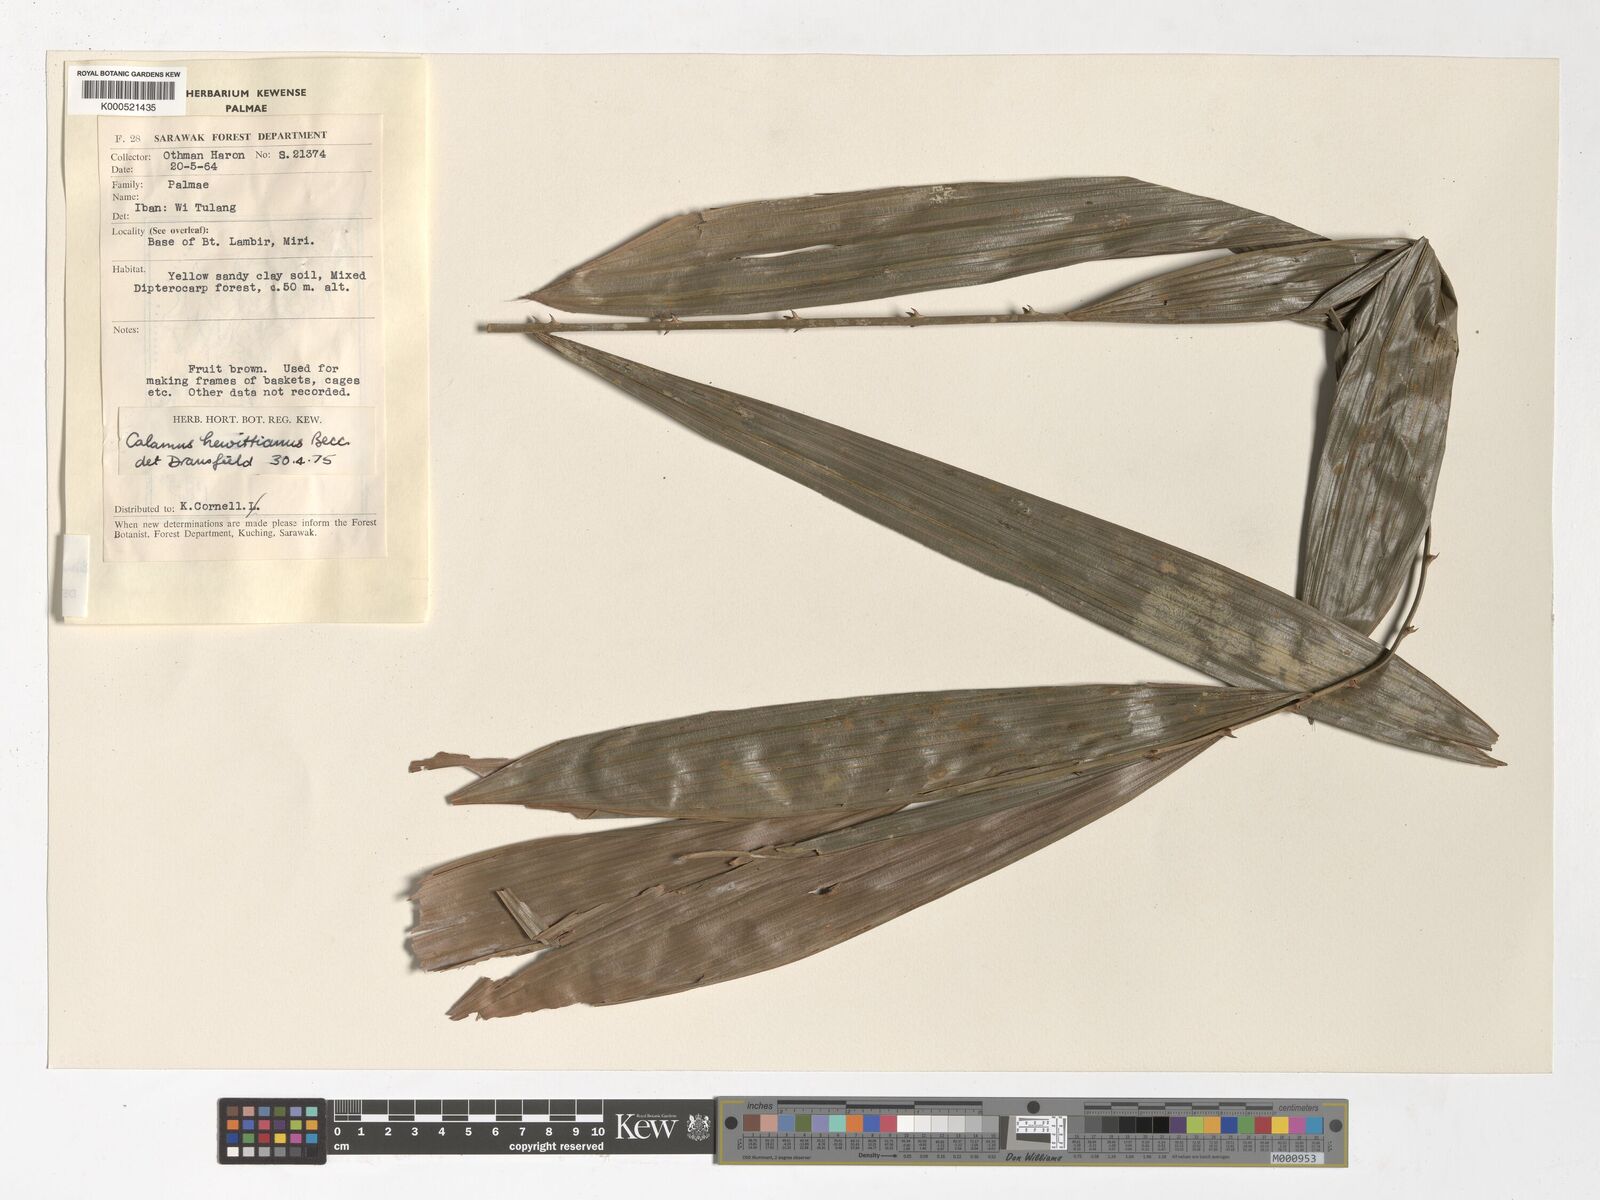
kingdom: Plantae
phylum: Tracheophyta
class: Liliopsida
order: Arecales
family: Arecaceae
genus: Calamus
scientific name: Calamus myriacanthus
